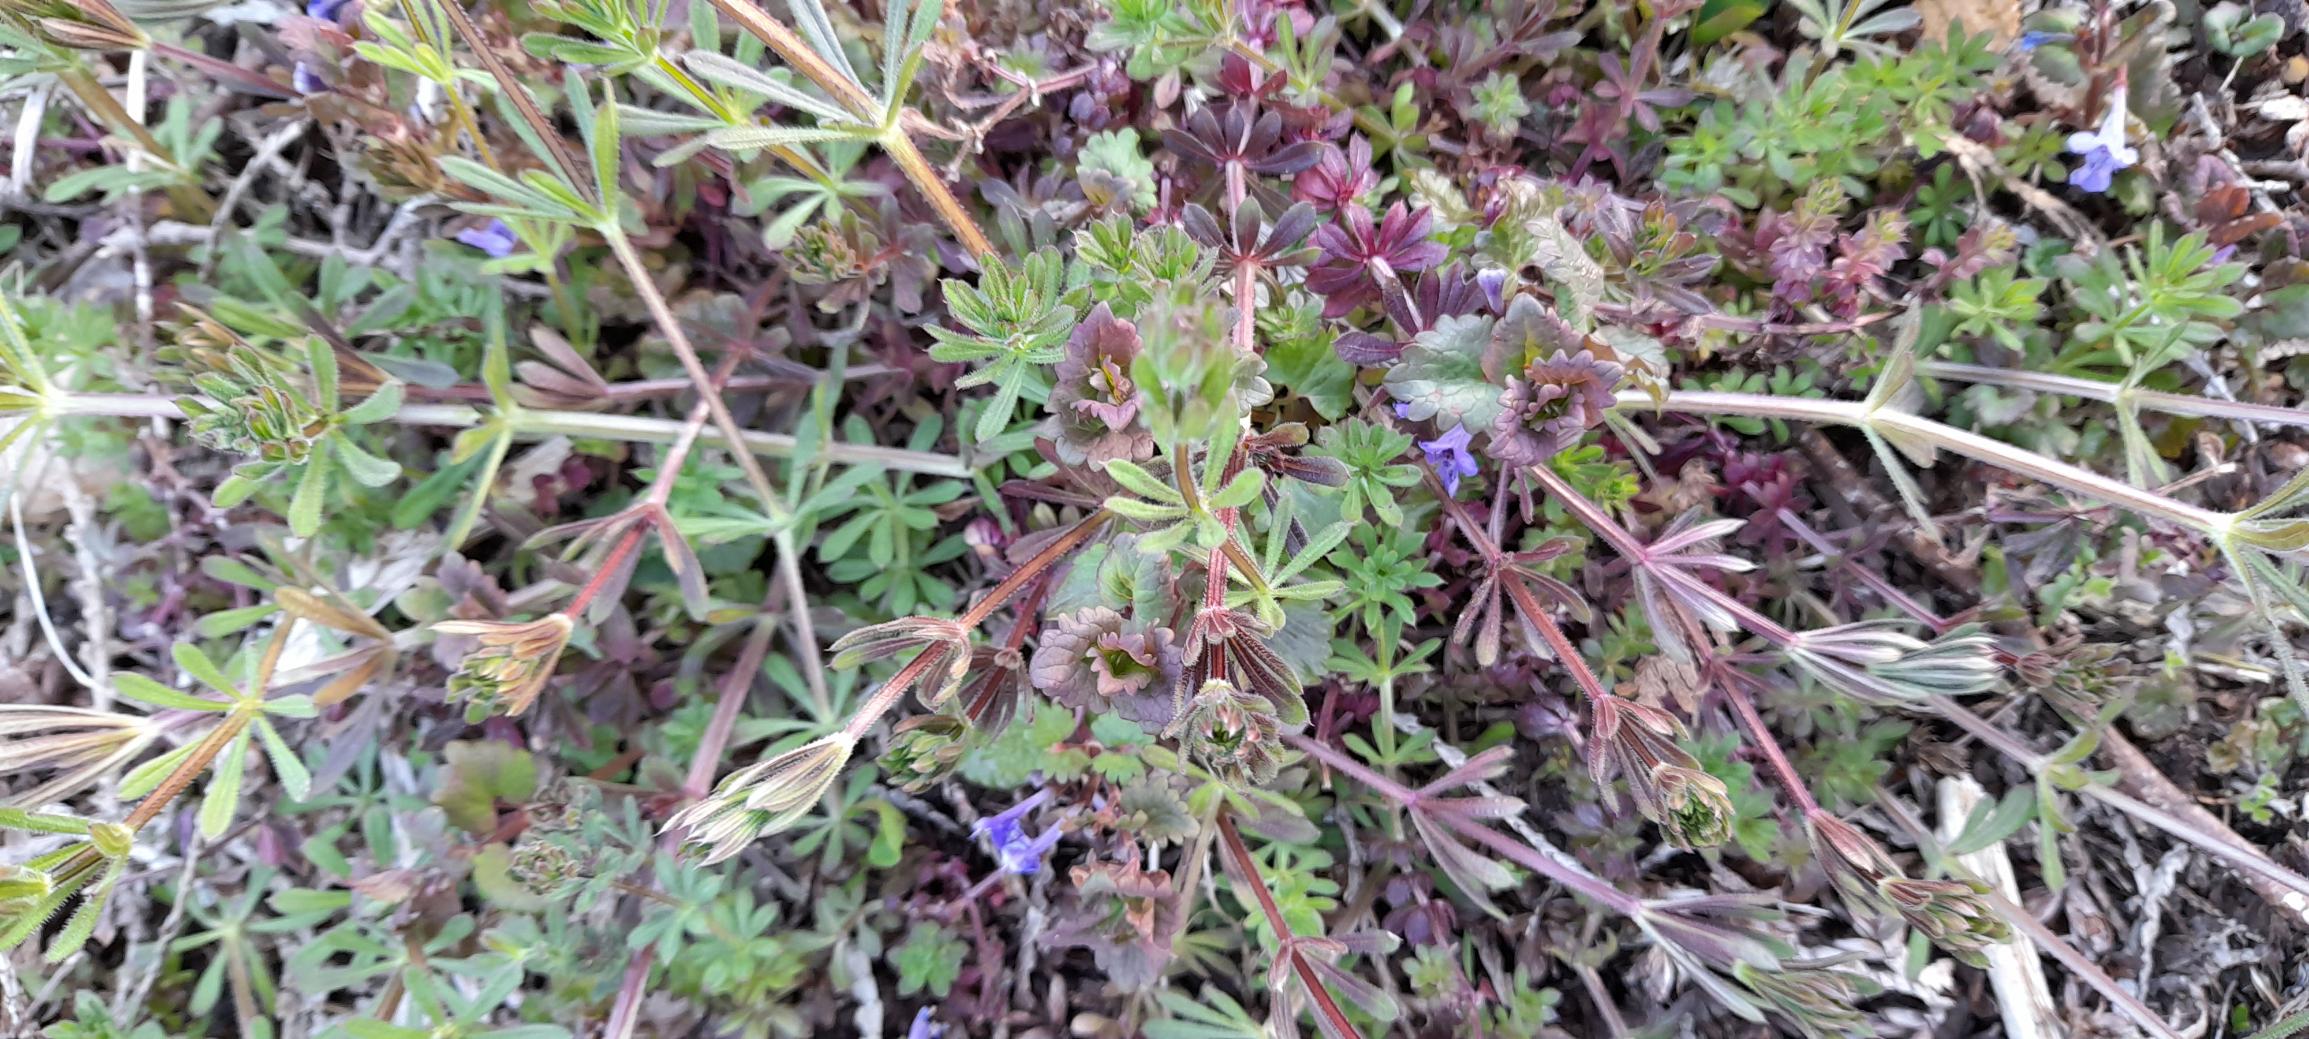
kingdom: Plantae
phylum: Tracheophyta
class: Magnoliopsida
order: Lamiales
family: Lamiaceae
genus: Glechoma
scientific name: Glechoma hederacea
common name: Korsknap
